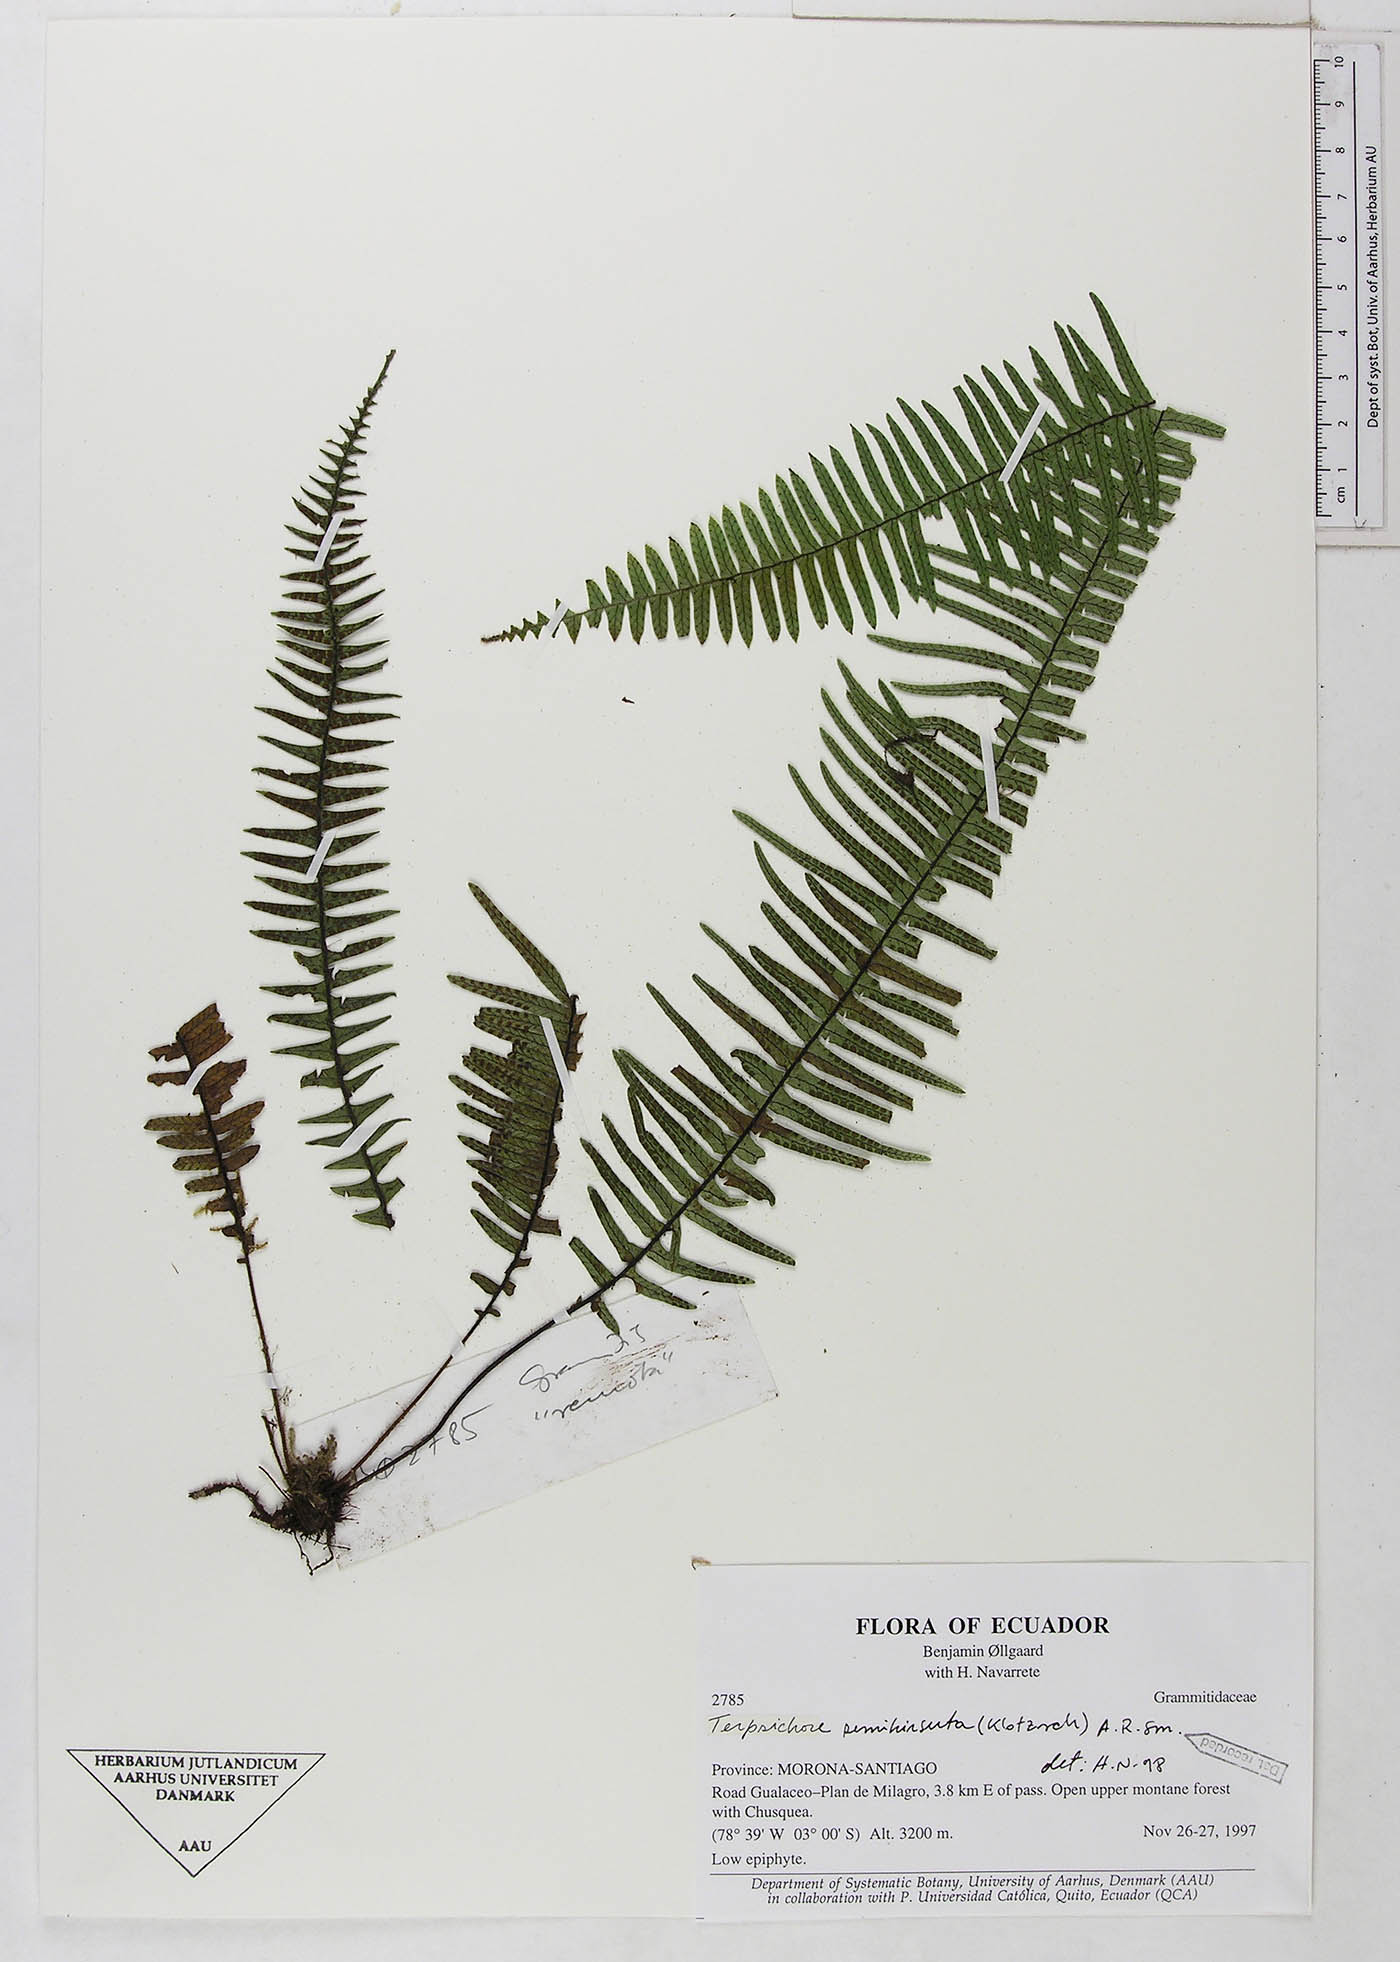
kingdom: Plantae
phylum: Tracheophyta
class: Polypodiopsida
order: Polypodiales
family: Polypodiaceae
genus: Mycopteris
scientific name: Mycopteris semihirsuta
